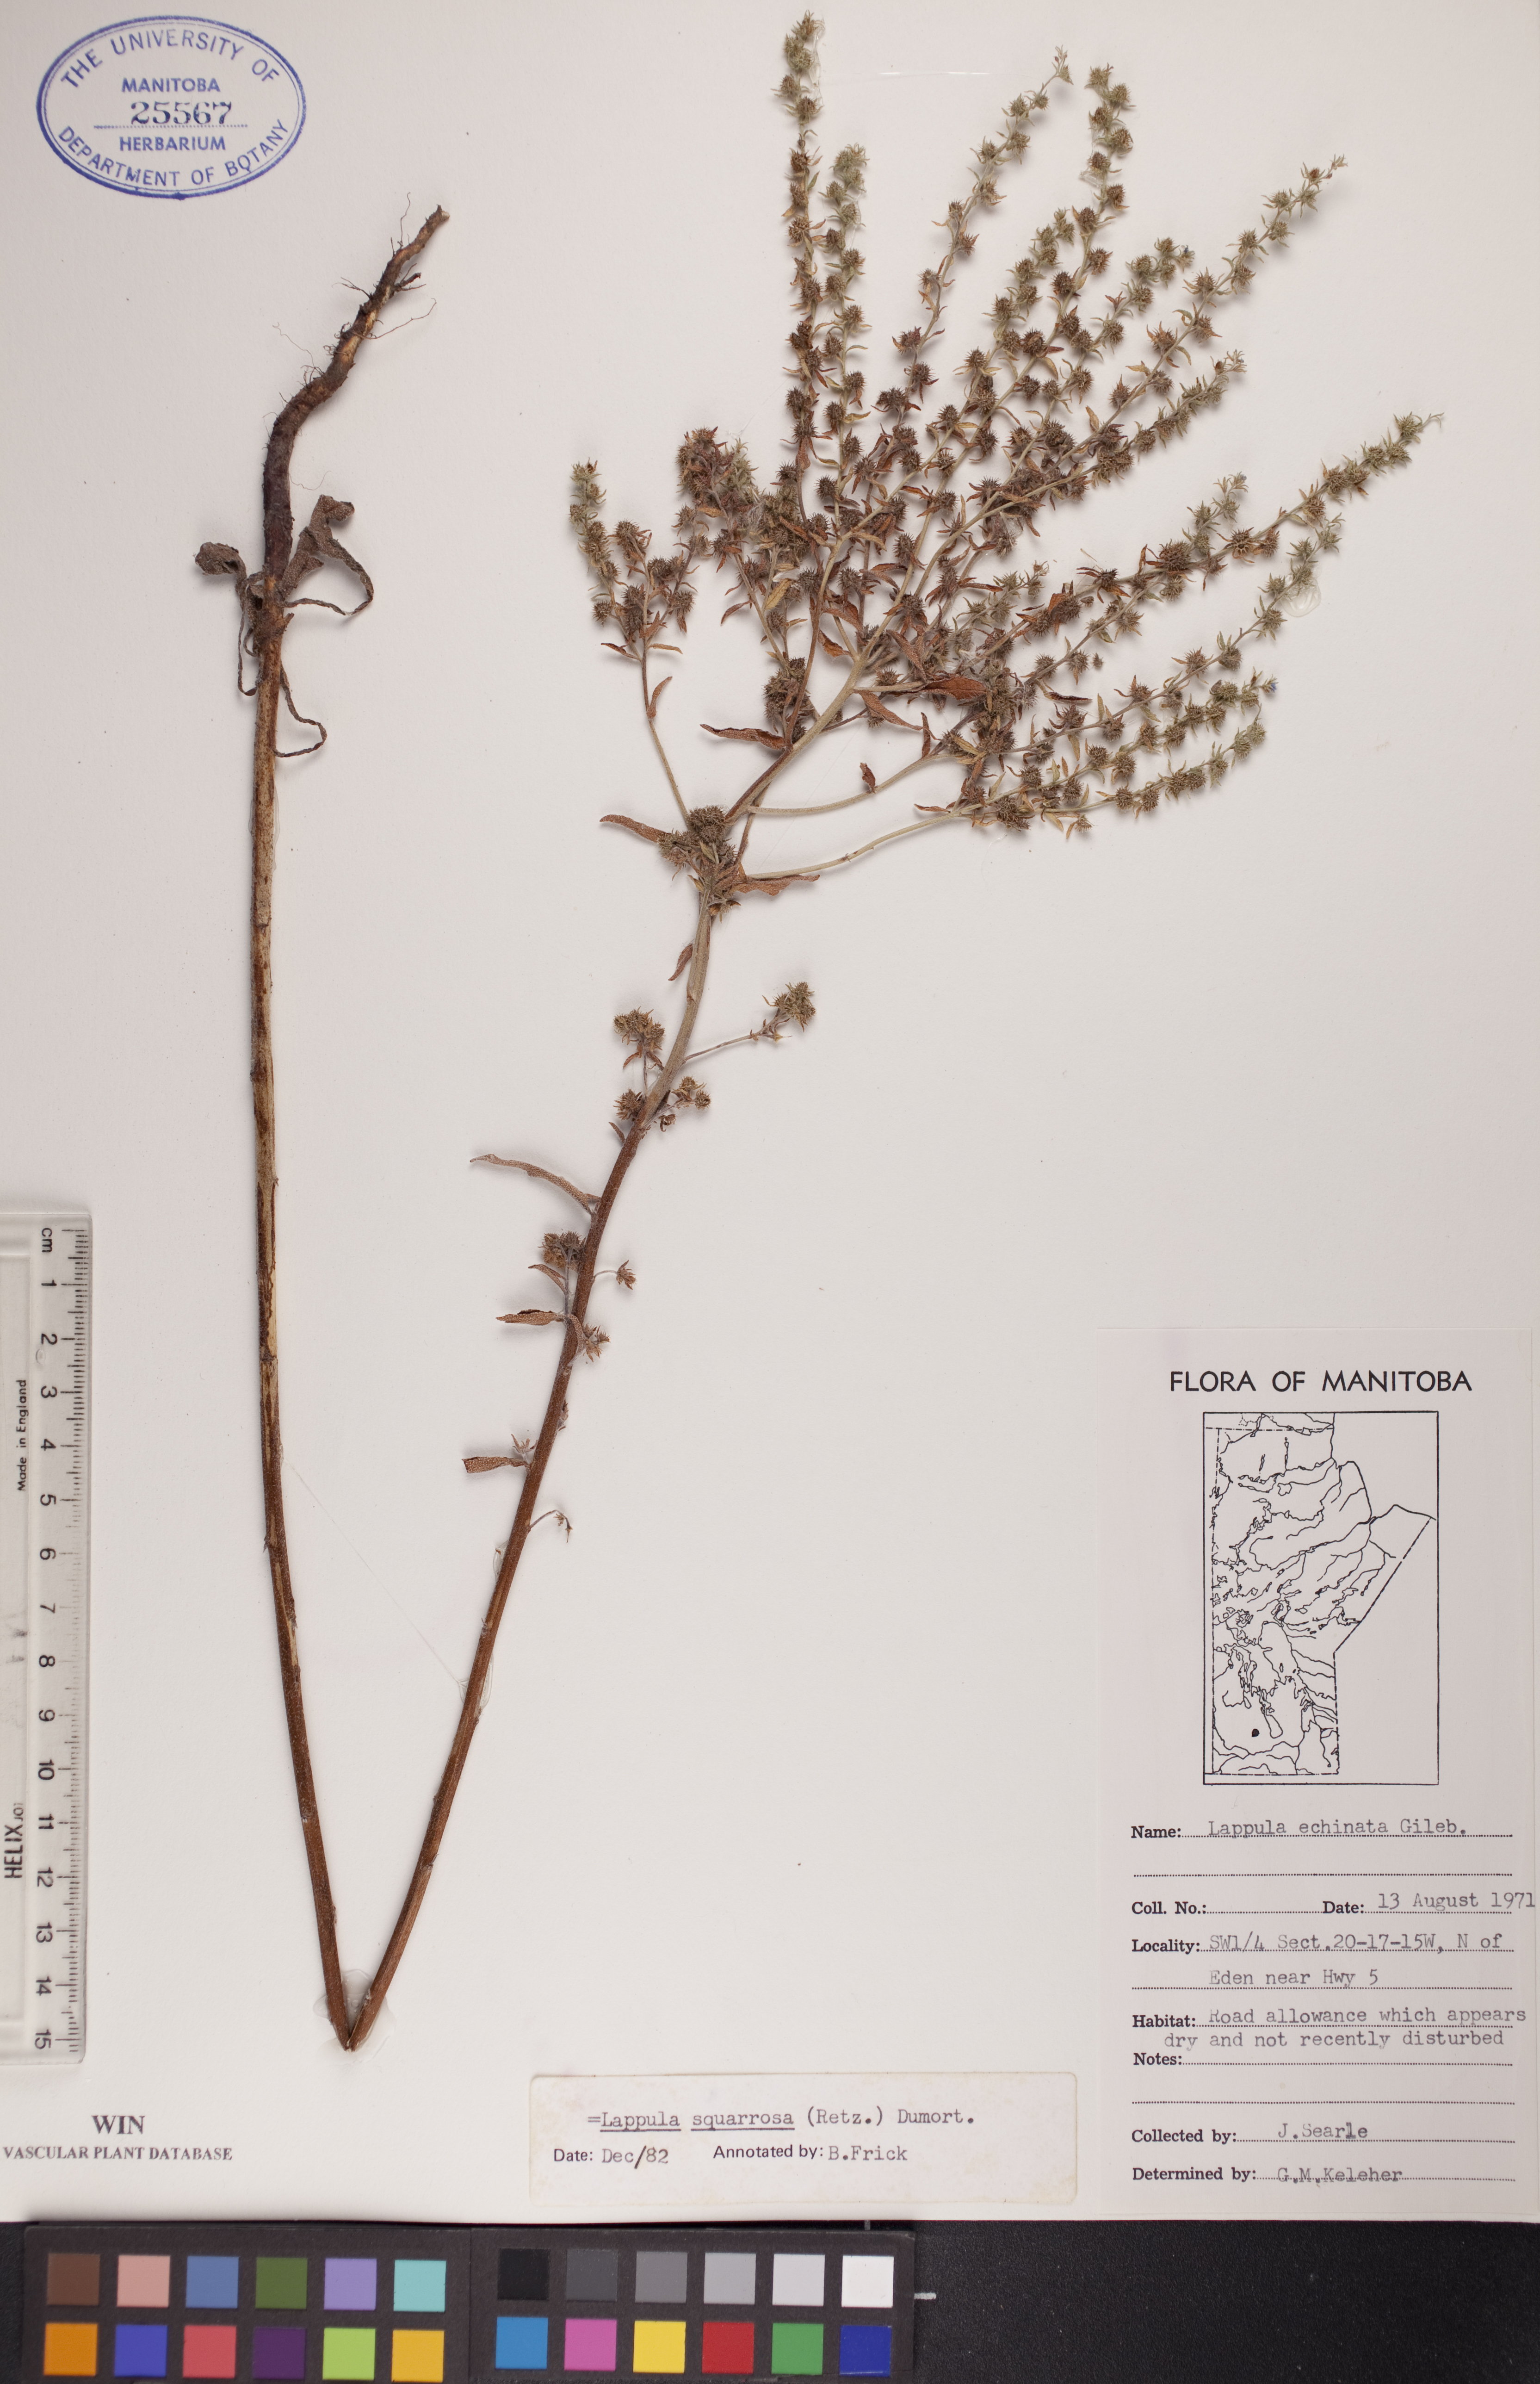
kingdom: Plantae
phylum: Tracheophyta
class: Magnoliopsida
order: Boraginales
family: Boraginaceae
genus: Lappula
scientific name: Lappula squarrosa
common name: European stickseed
